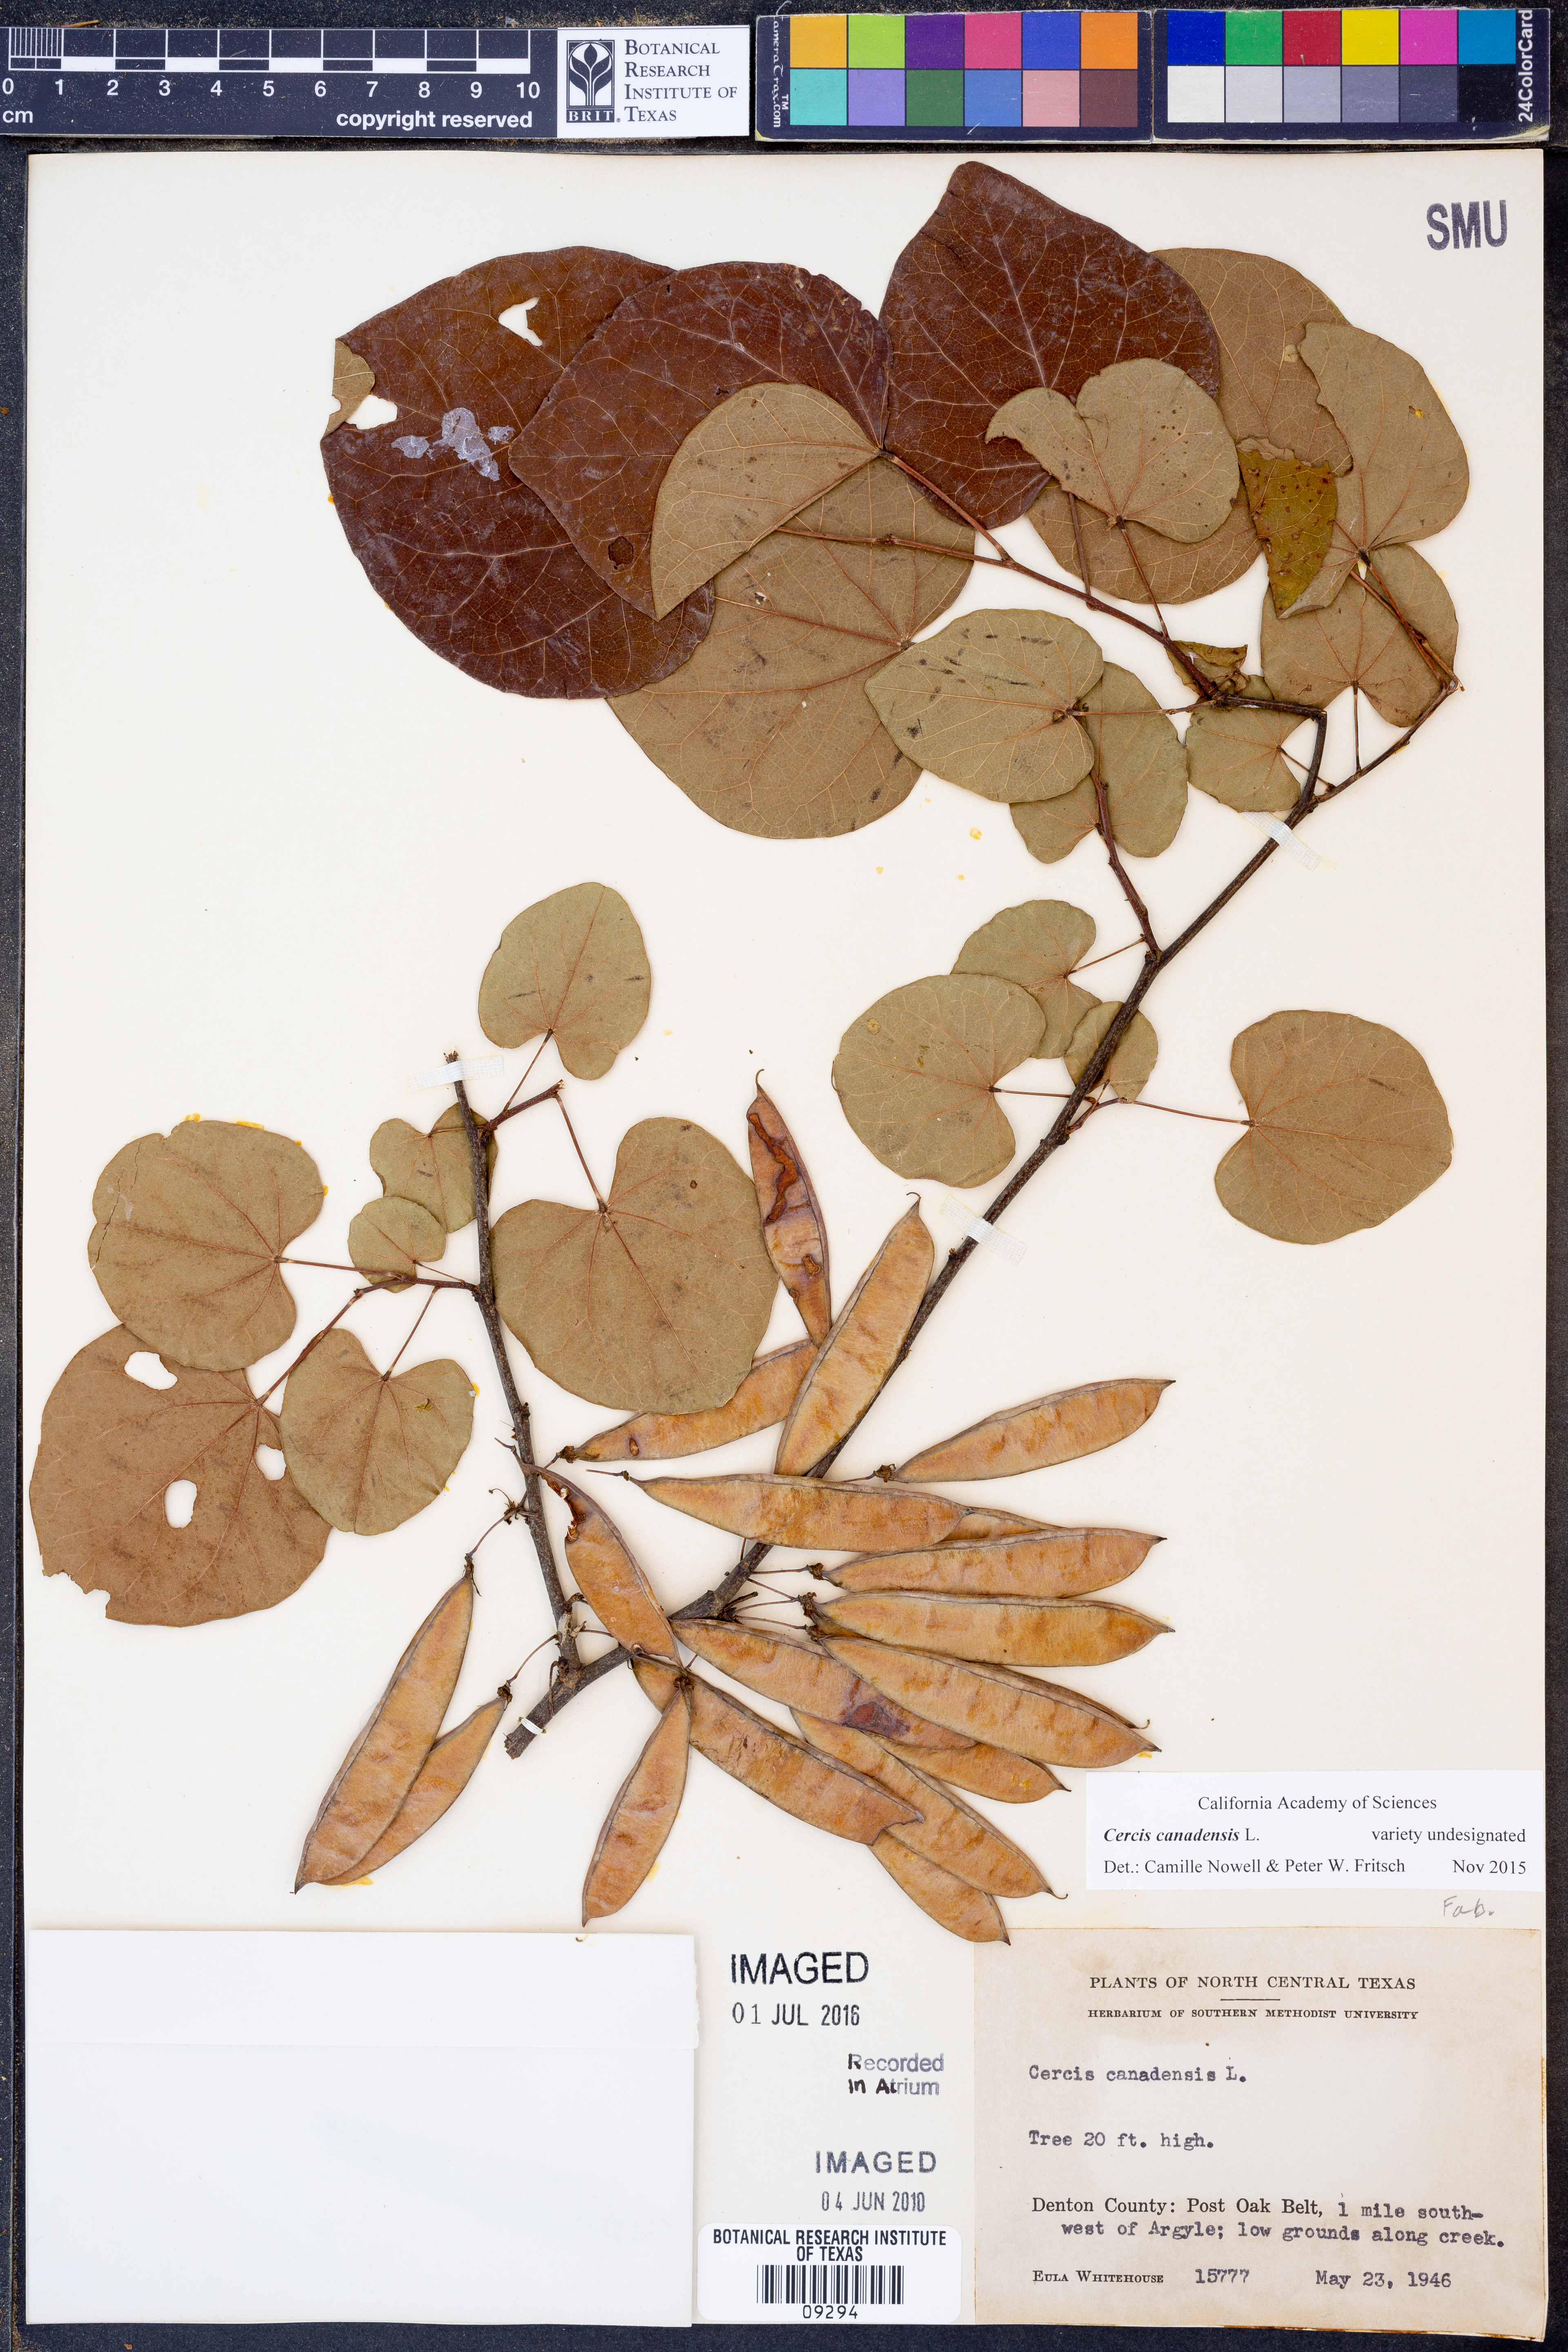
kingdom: Plantae
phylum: Tracheophyta
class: Magnoliopsida
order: Fabales
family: Fabaceae
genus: Cercis
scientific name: Cercis canadensis
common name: Eastern redbud
